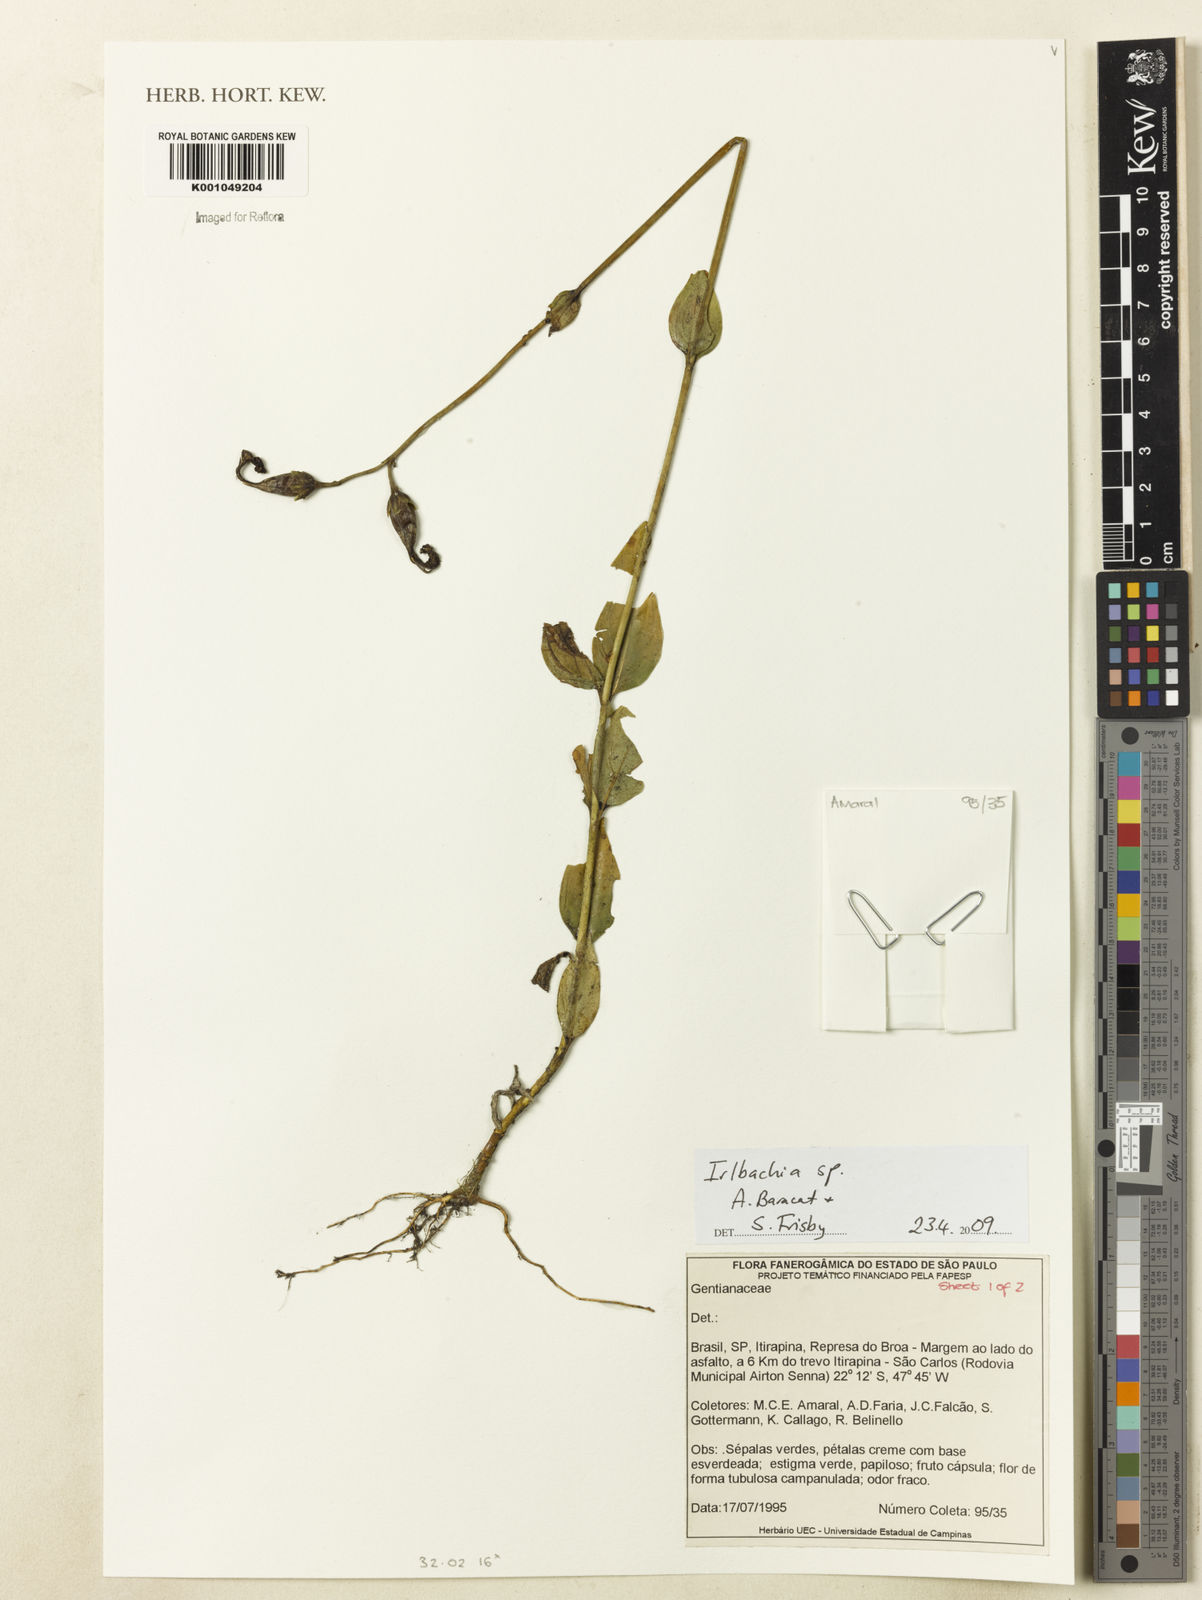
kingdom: Plantae
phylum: Tracheophyta
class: Magnoliopsida
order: Gentianales
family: Gentianaceae
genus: Irlbachia
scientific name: Irlbachia
